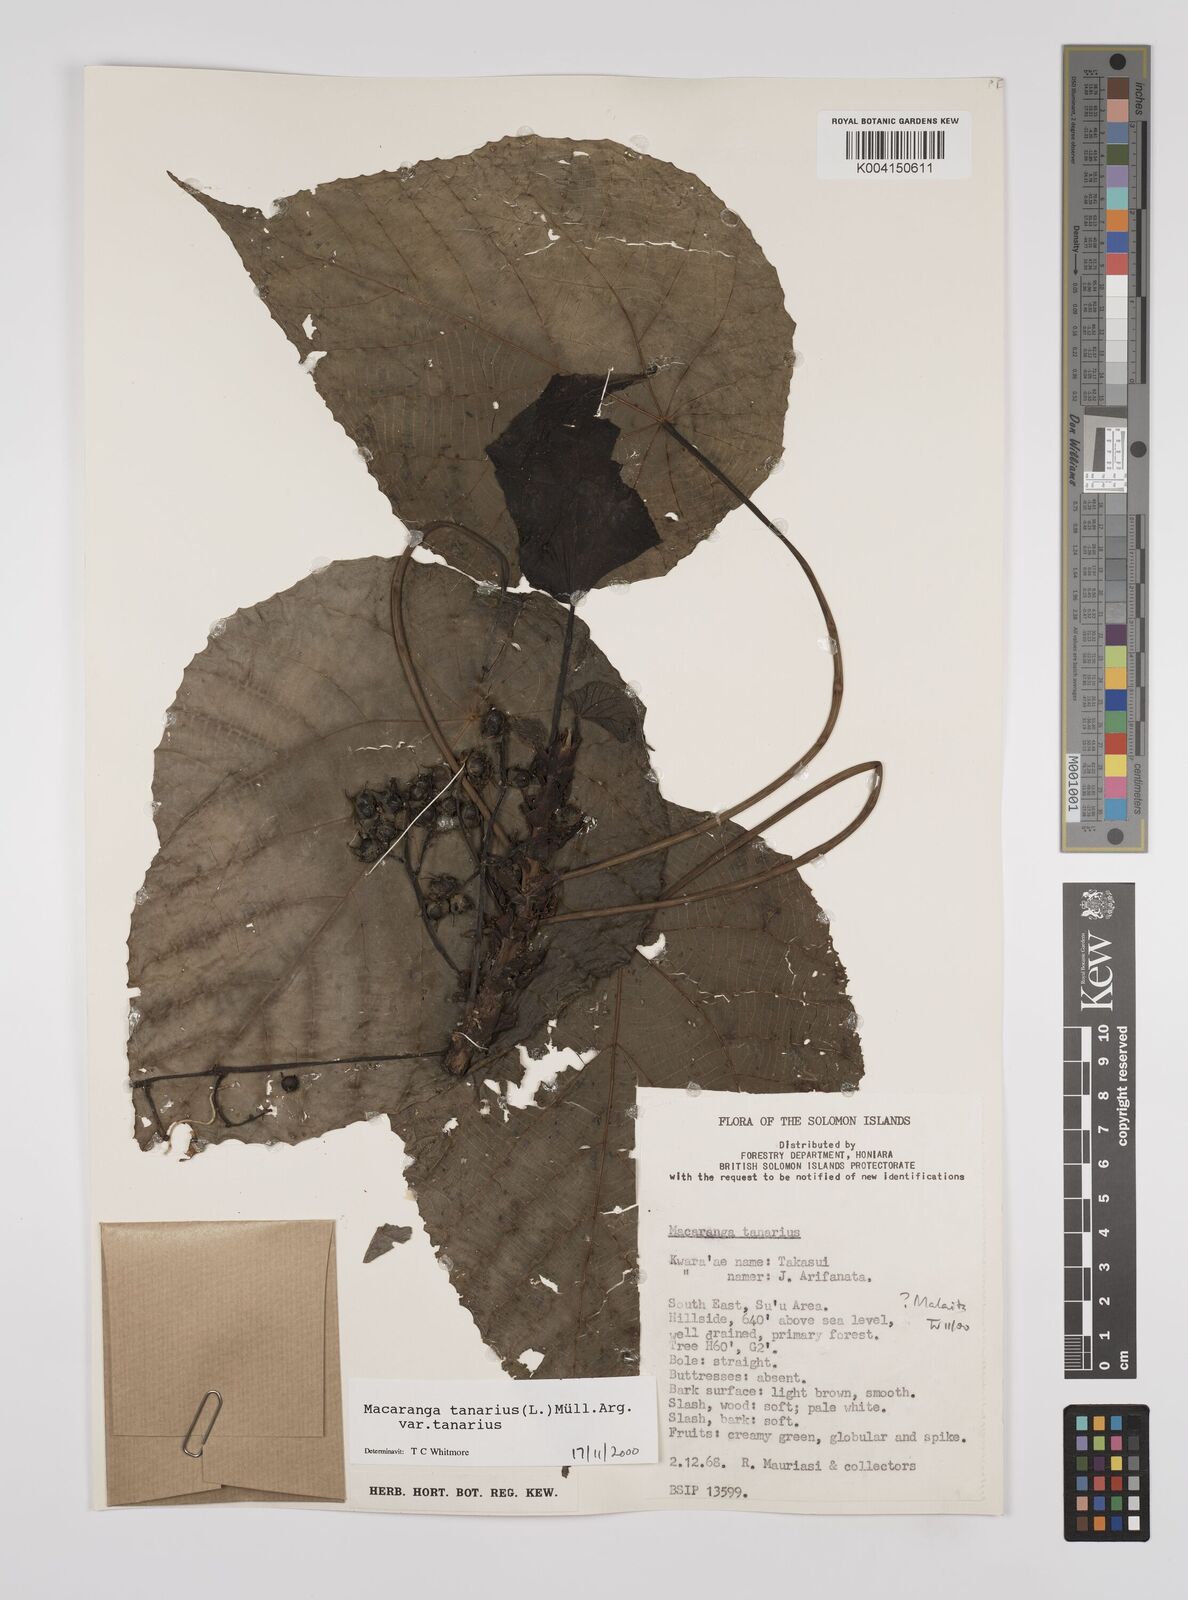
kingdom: Plantae
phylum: Tracheophyta
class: Magnoliopsida
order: Malpighiales
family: Euphorbiaceae
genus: Macaranga
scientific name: Macaranga tanarius
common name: Parasol leaf tree
